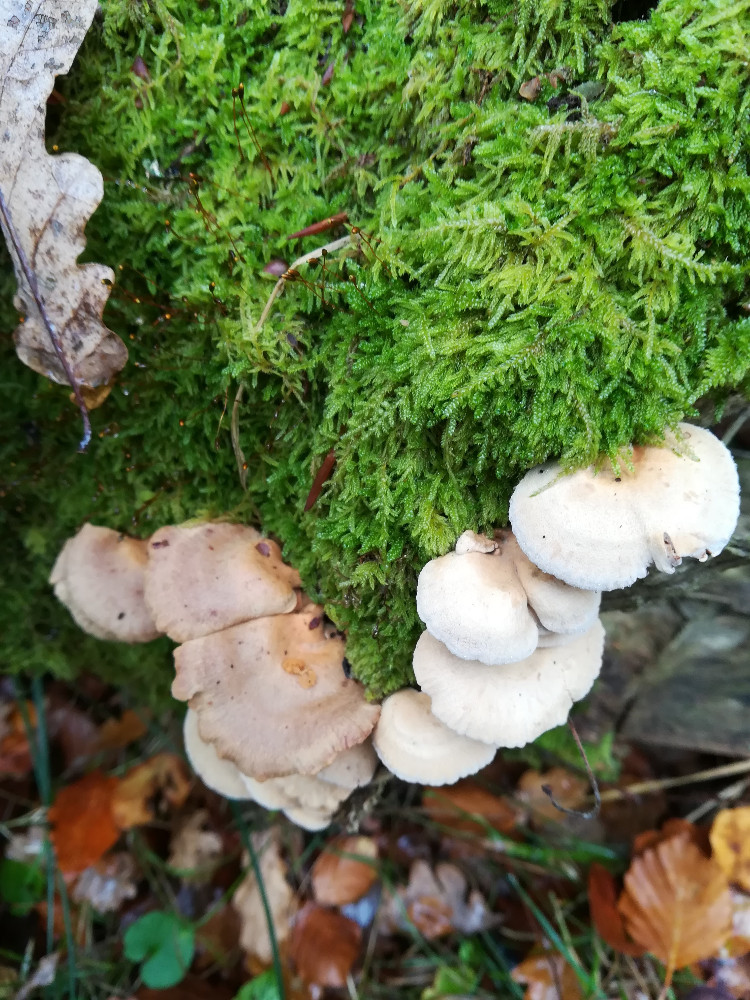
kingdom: Fungi
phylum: Basidiomycota
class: Agaricomycetes
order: Agaricales
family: Mycenaceae
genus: Panellus
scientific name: Panellus stipticus
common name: kliddet epaulethat
